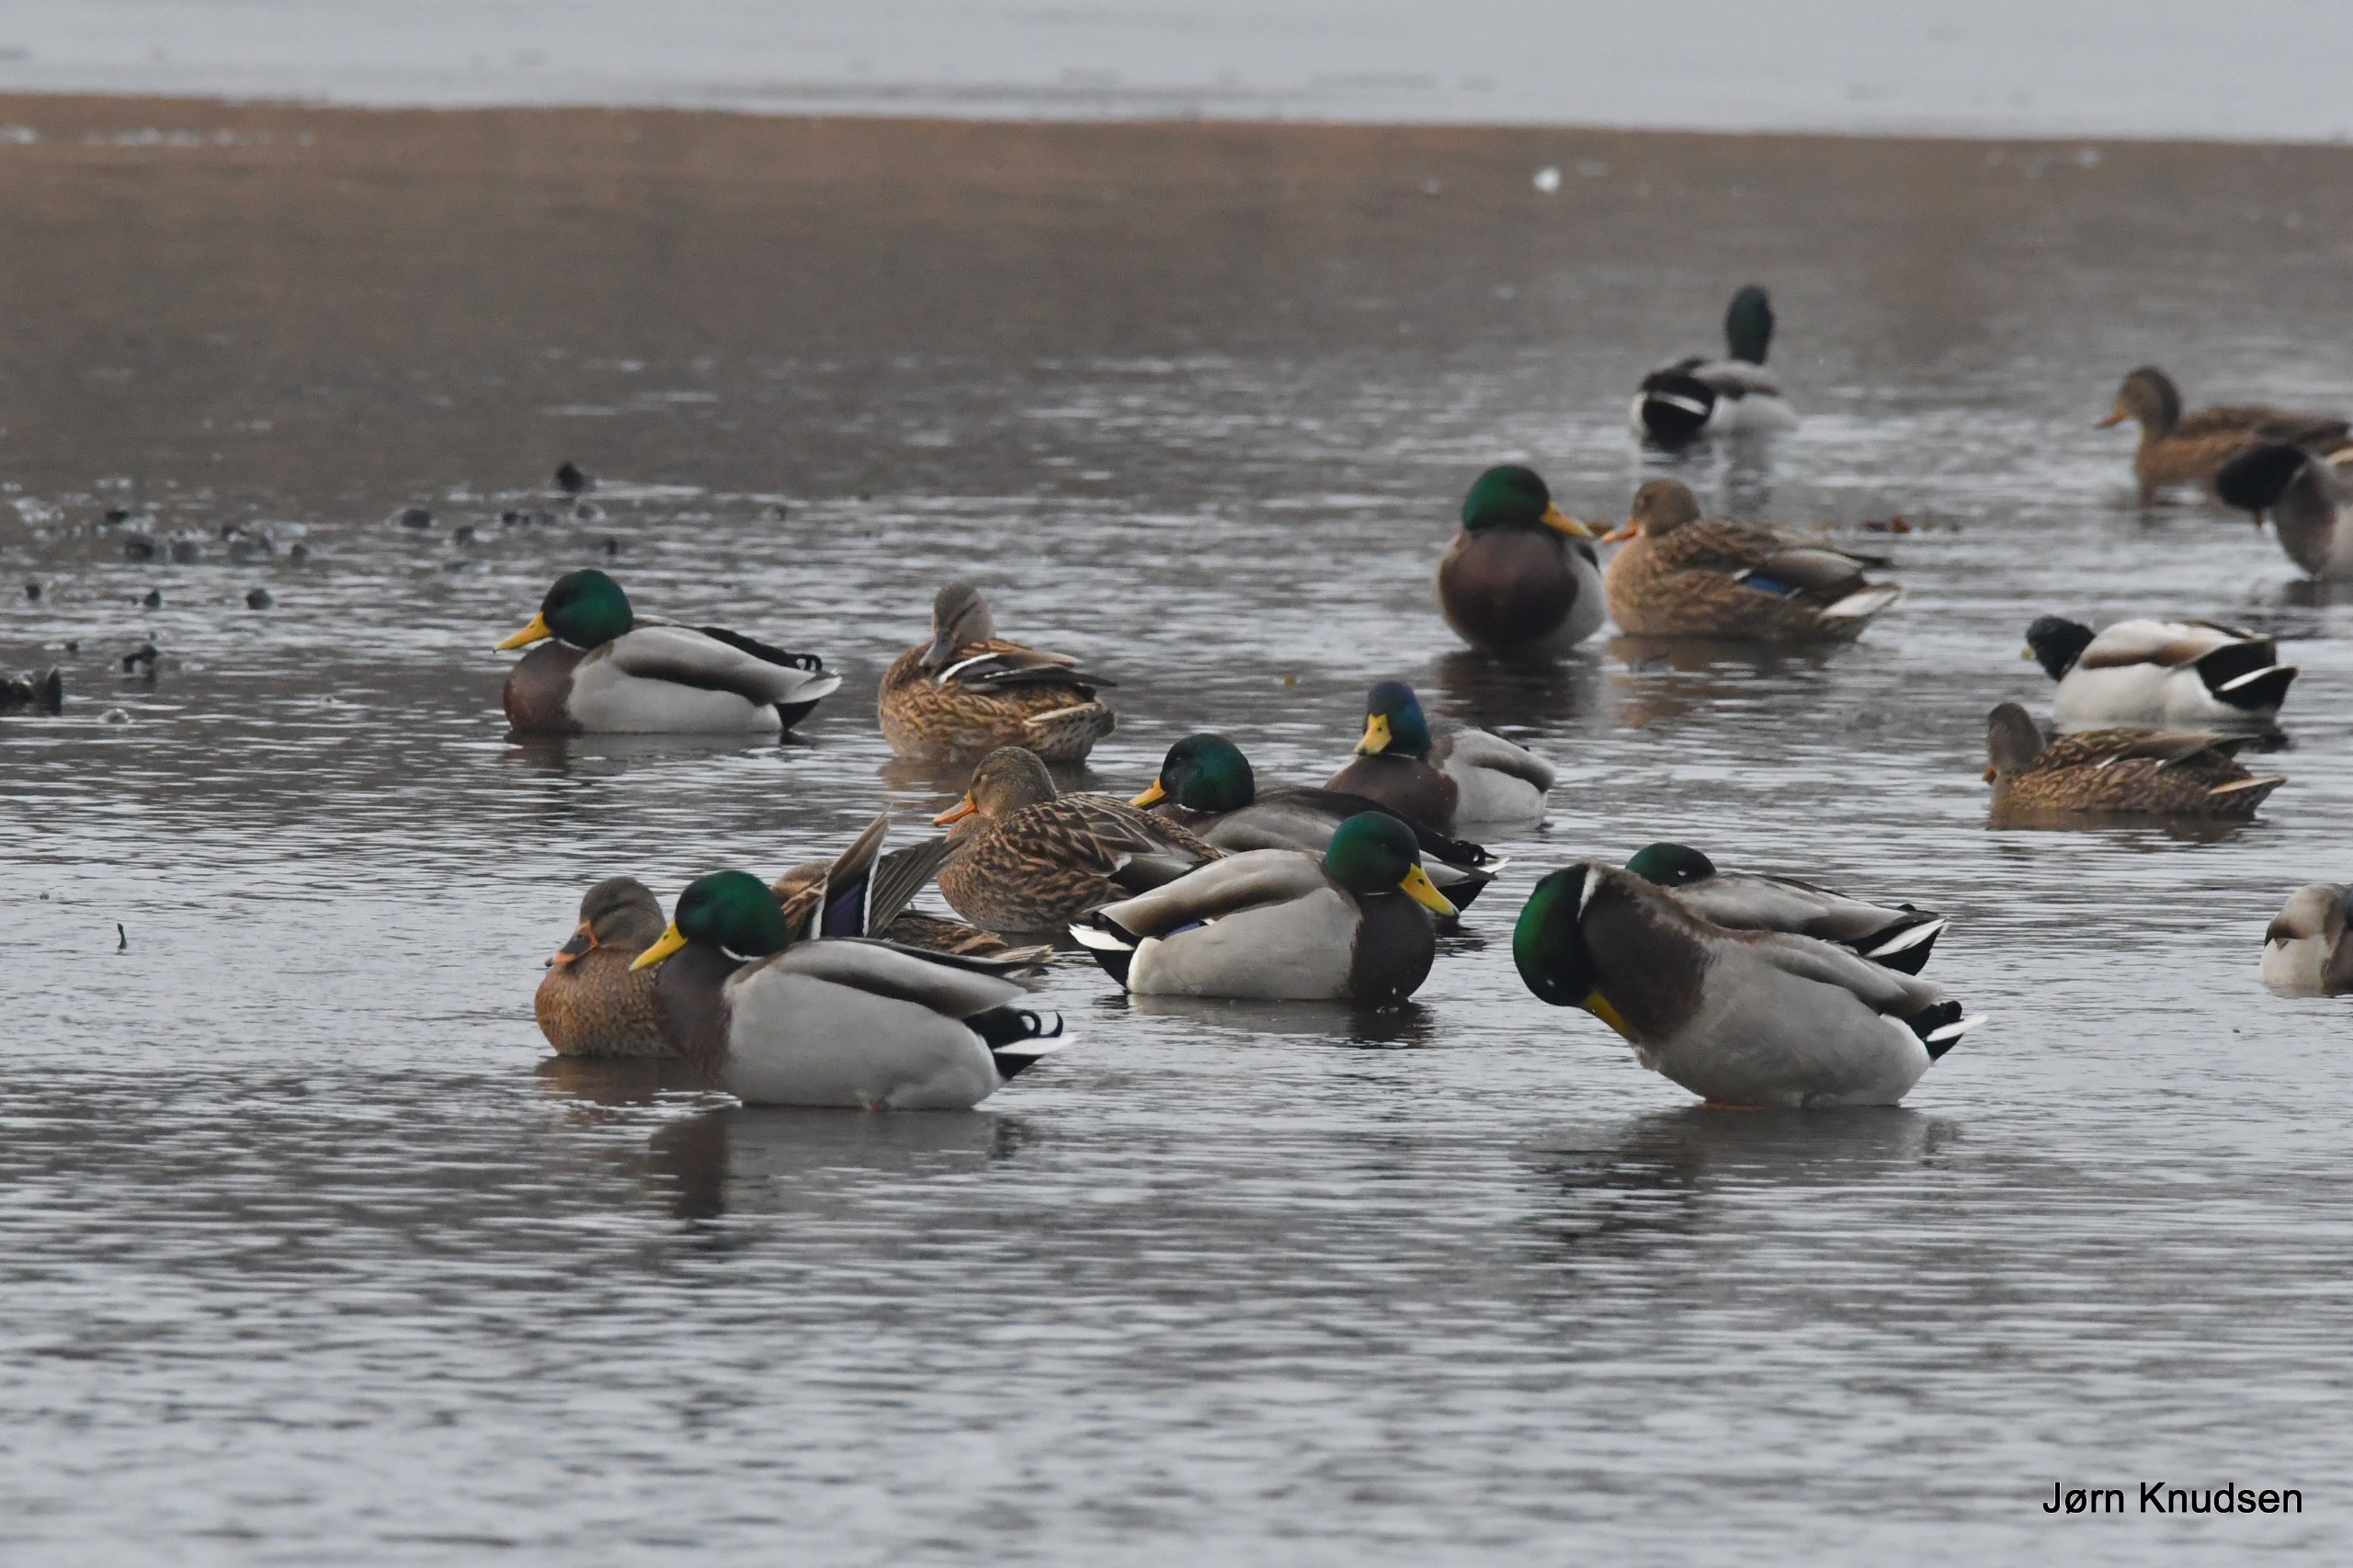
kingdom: Animalia
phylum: Chordata
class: Aves
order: Anseriformes
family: Anatidae
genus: Anas
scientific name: Anas platyrhynchos
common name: Gråand
